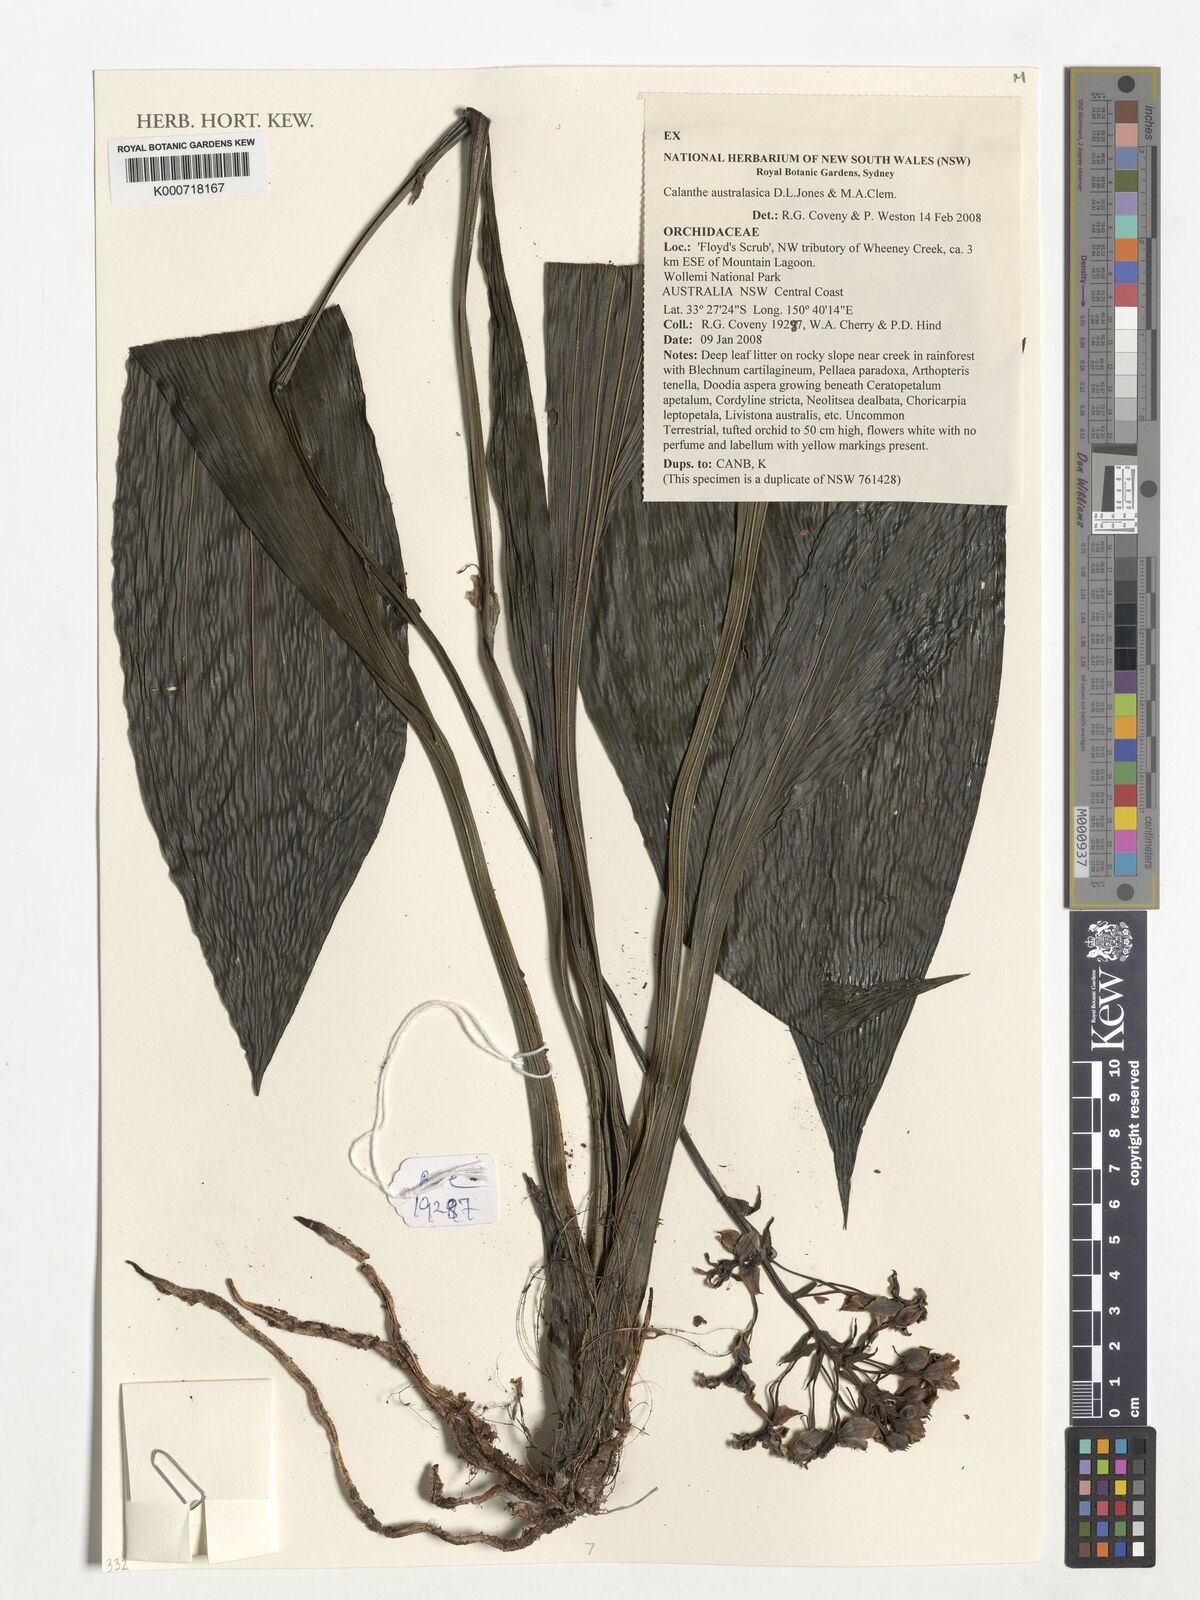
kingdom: Plantae
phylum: Tracheophyta
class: Liliopsida
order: Asparagales
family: Orchidaceae
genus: Calanthe
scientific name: Calanthe triplicata
